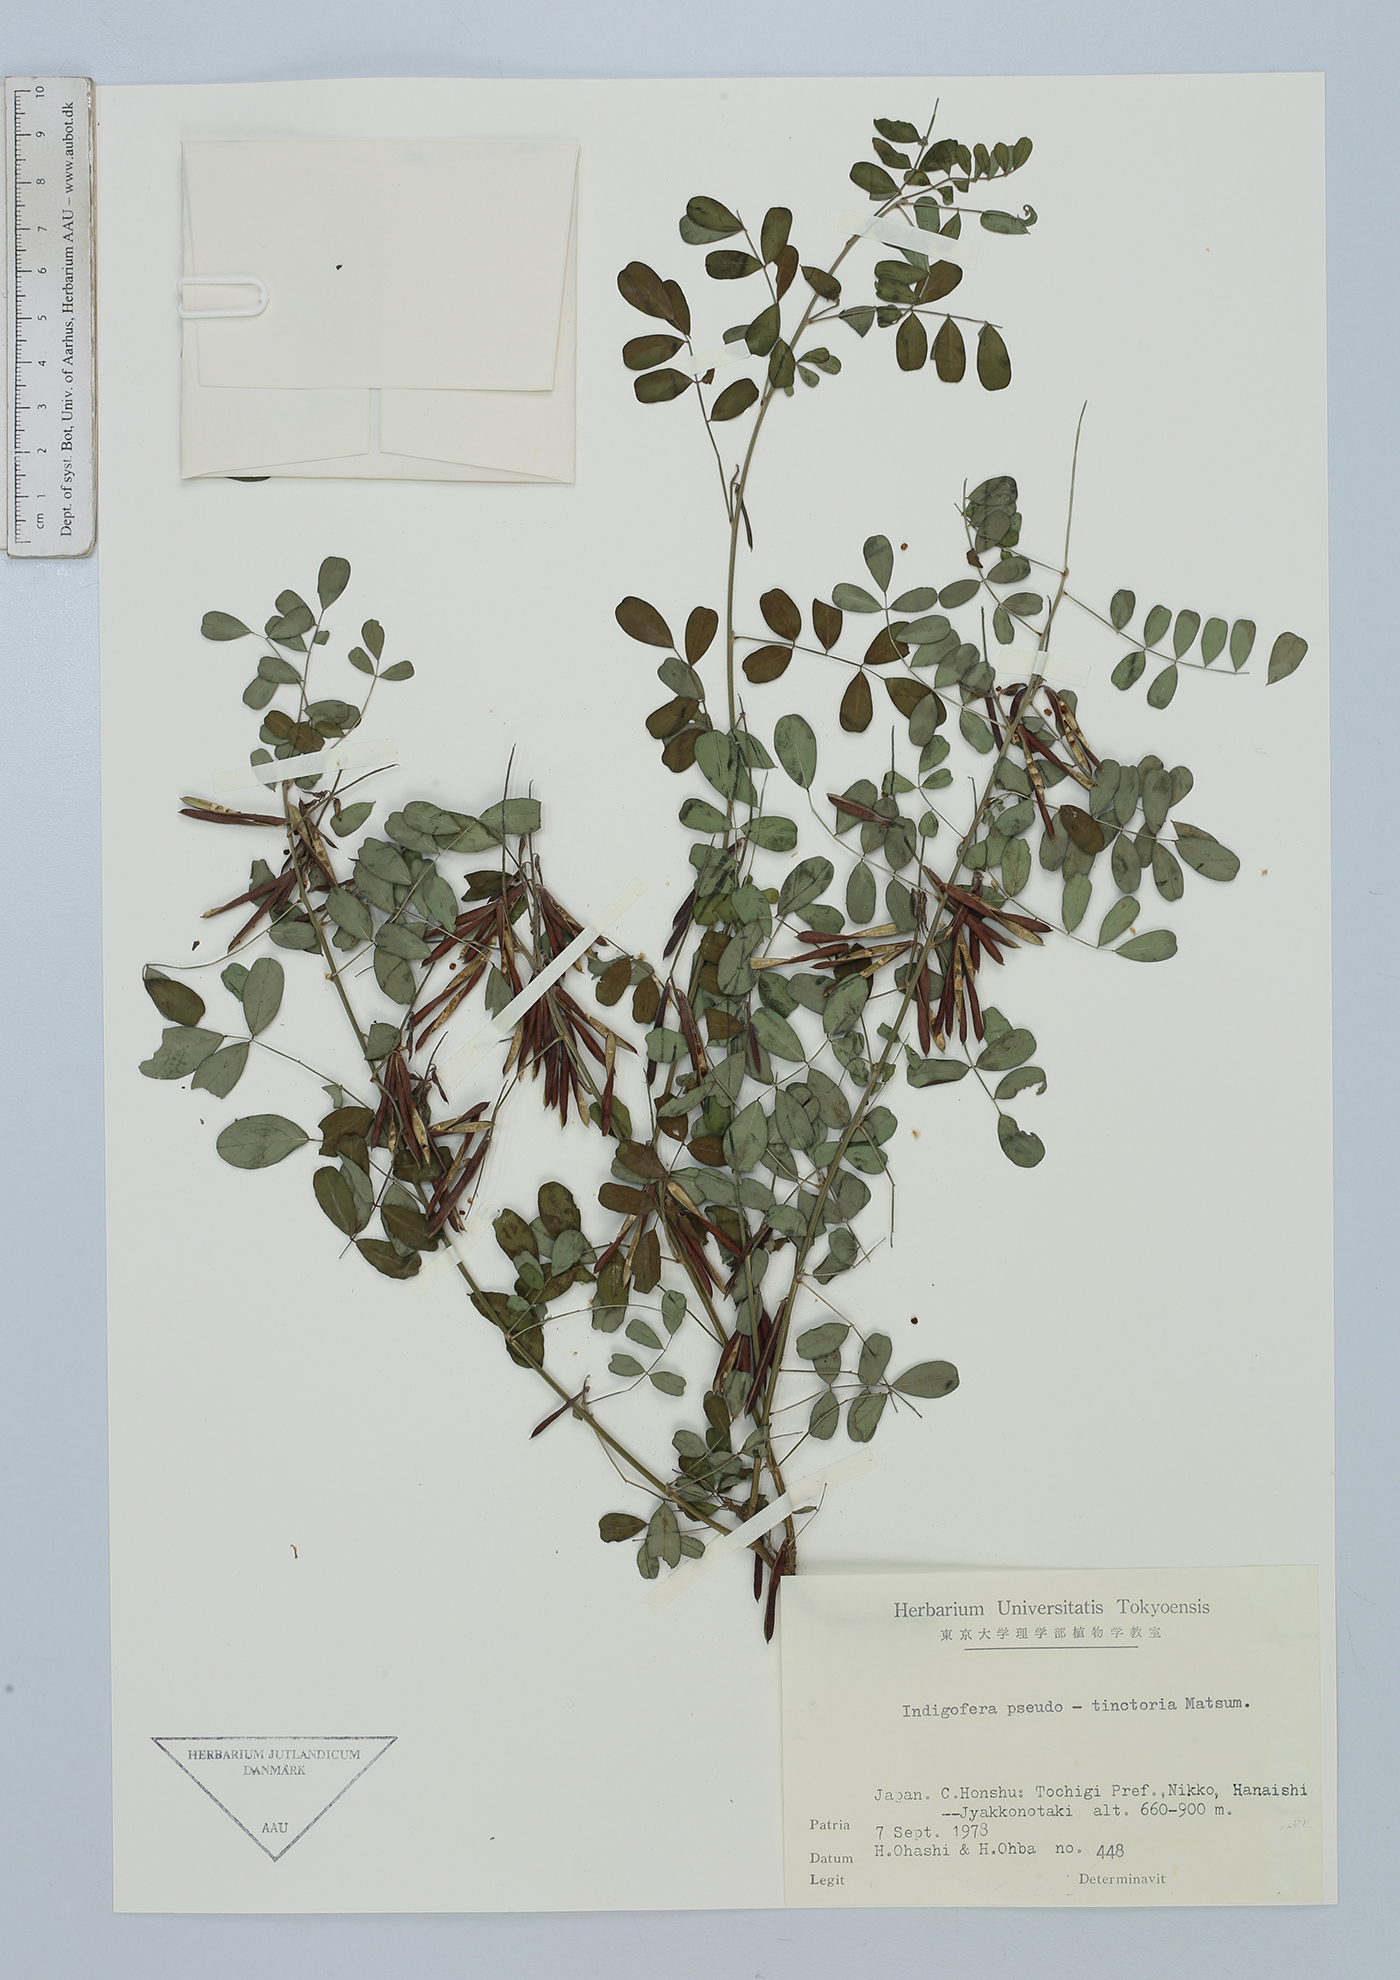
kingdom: Plantae
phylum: Tracheophyta
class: Magnoliopsida
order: Fabales
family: Fabaceae
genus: Indigofera
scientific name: Indigofera bungeana
